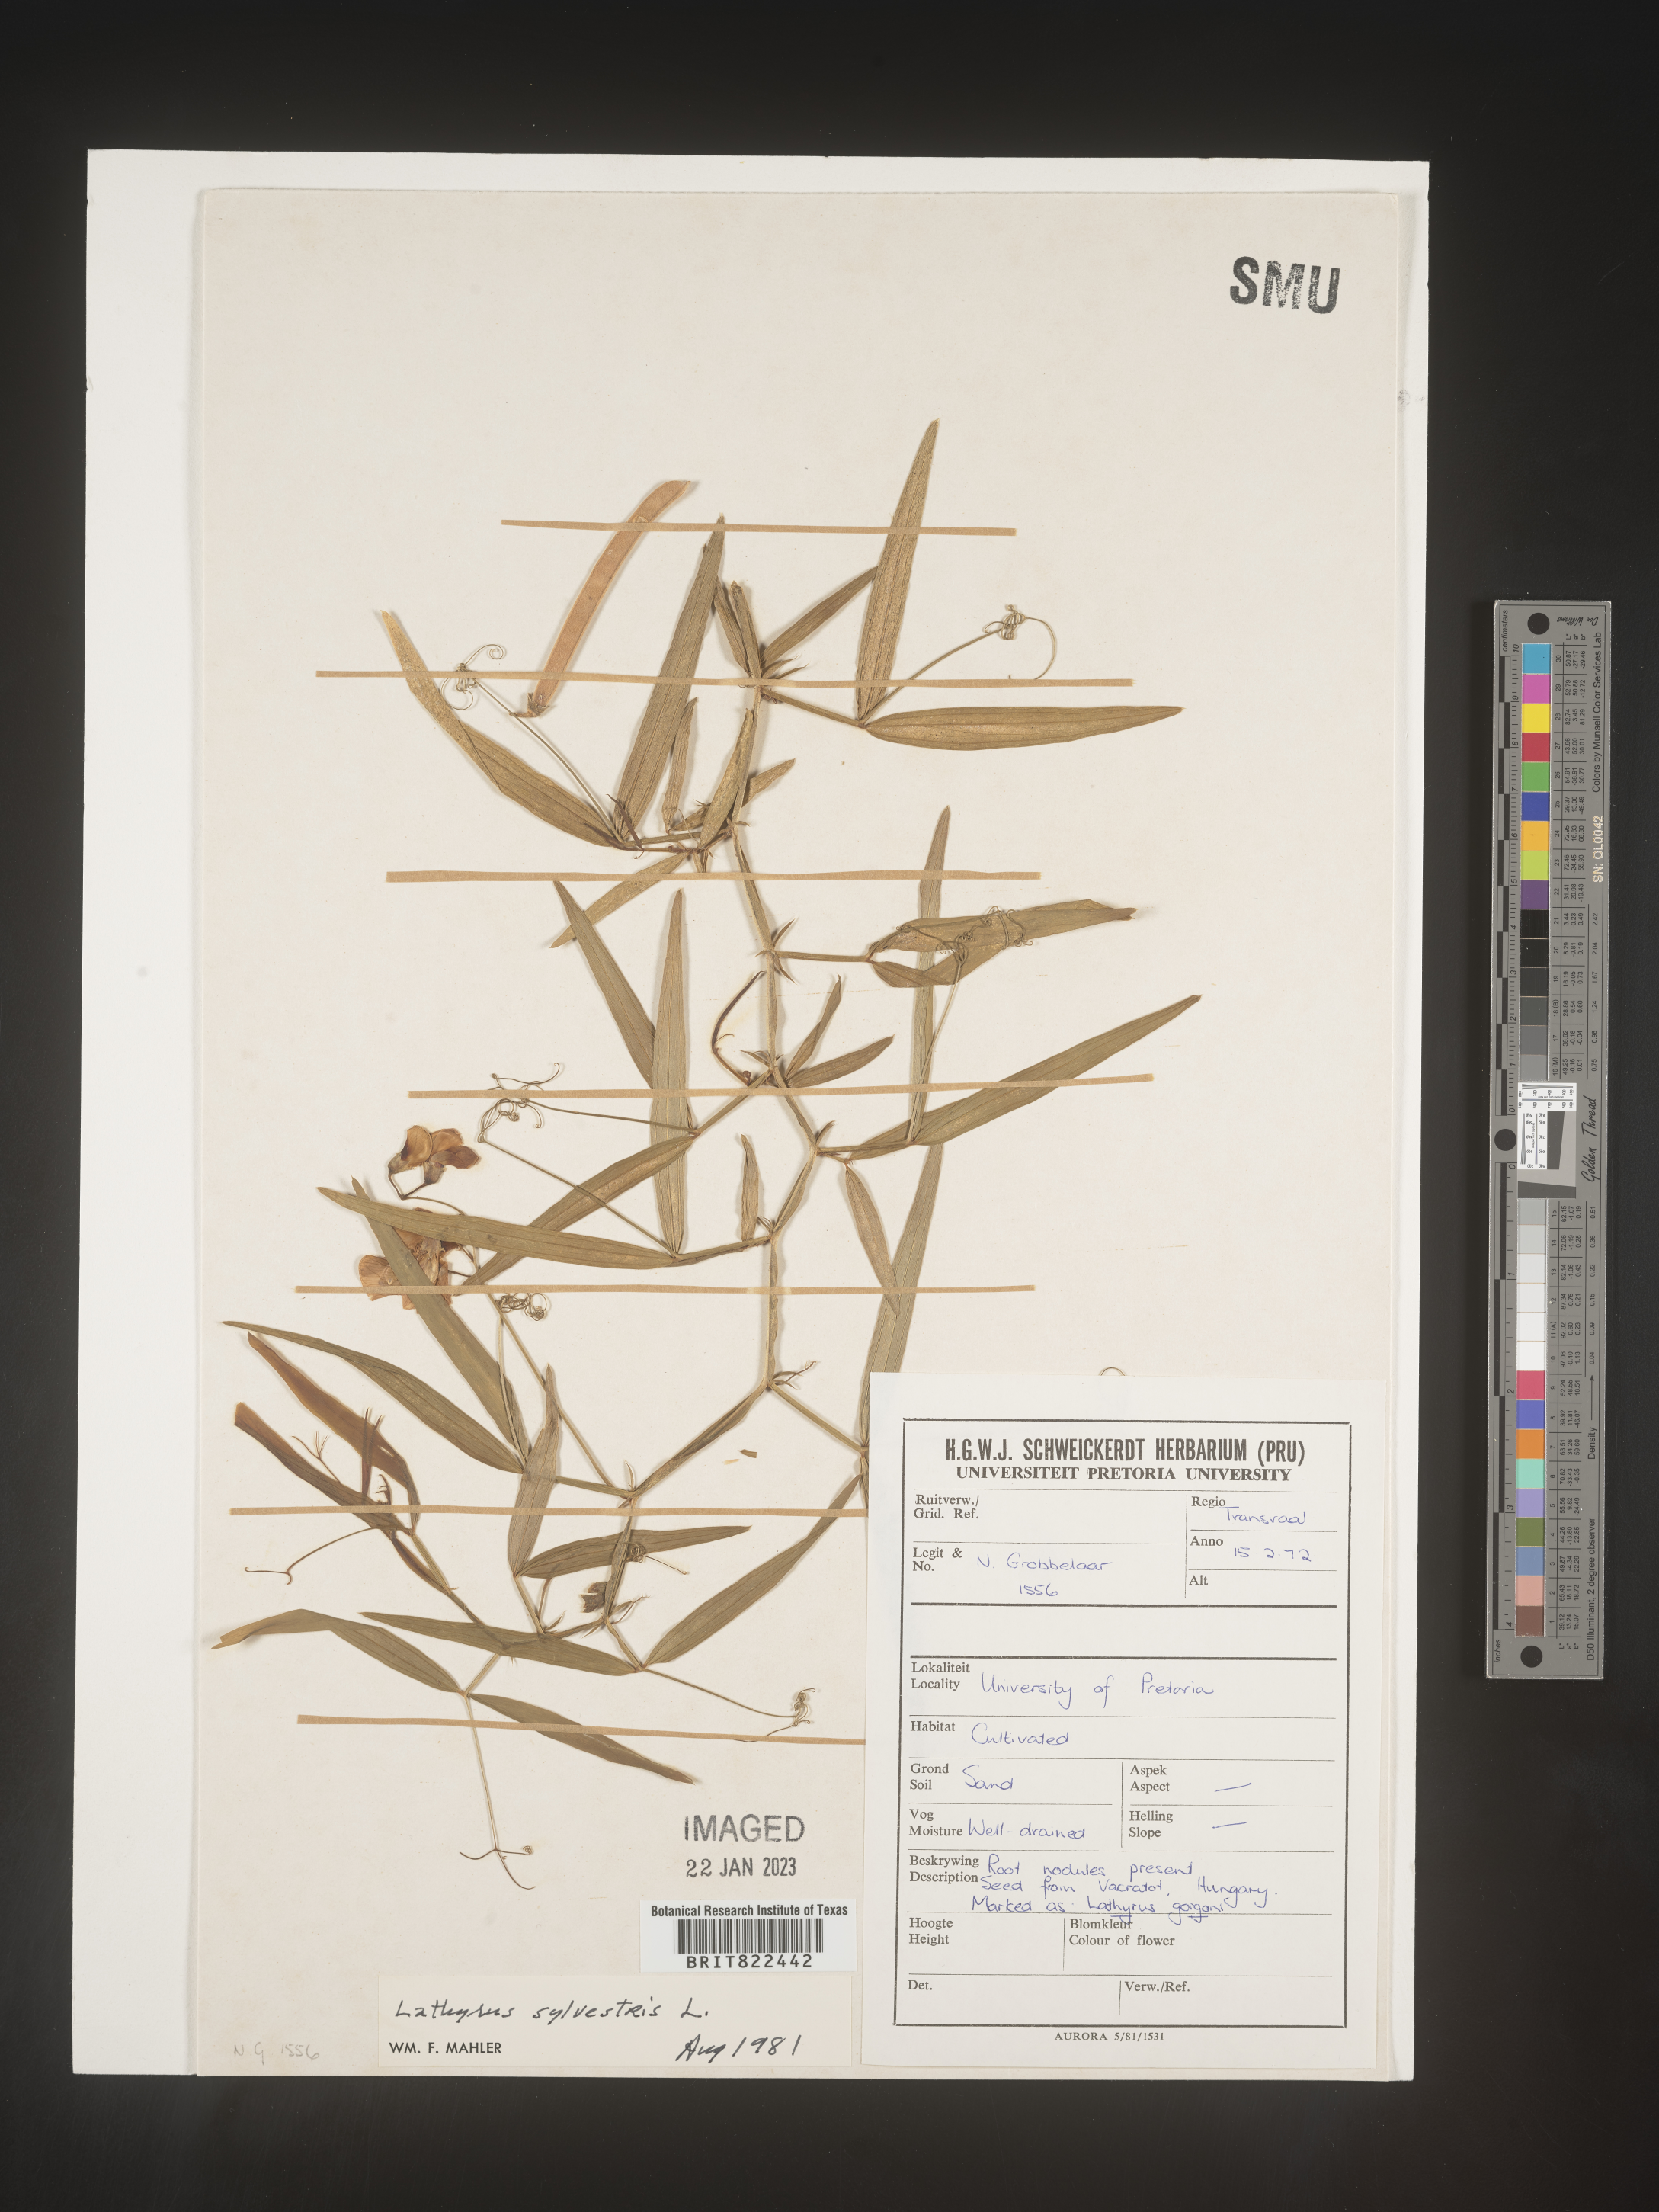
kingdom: Plantae
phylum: Tracheophyta
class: Magnoliopsida
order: Fabales
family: Fabaceae
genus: Lathyrus
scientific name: Lathyrus
